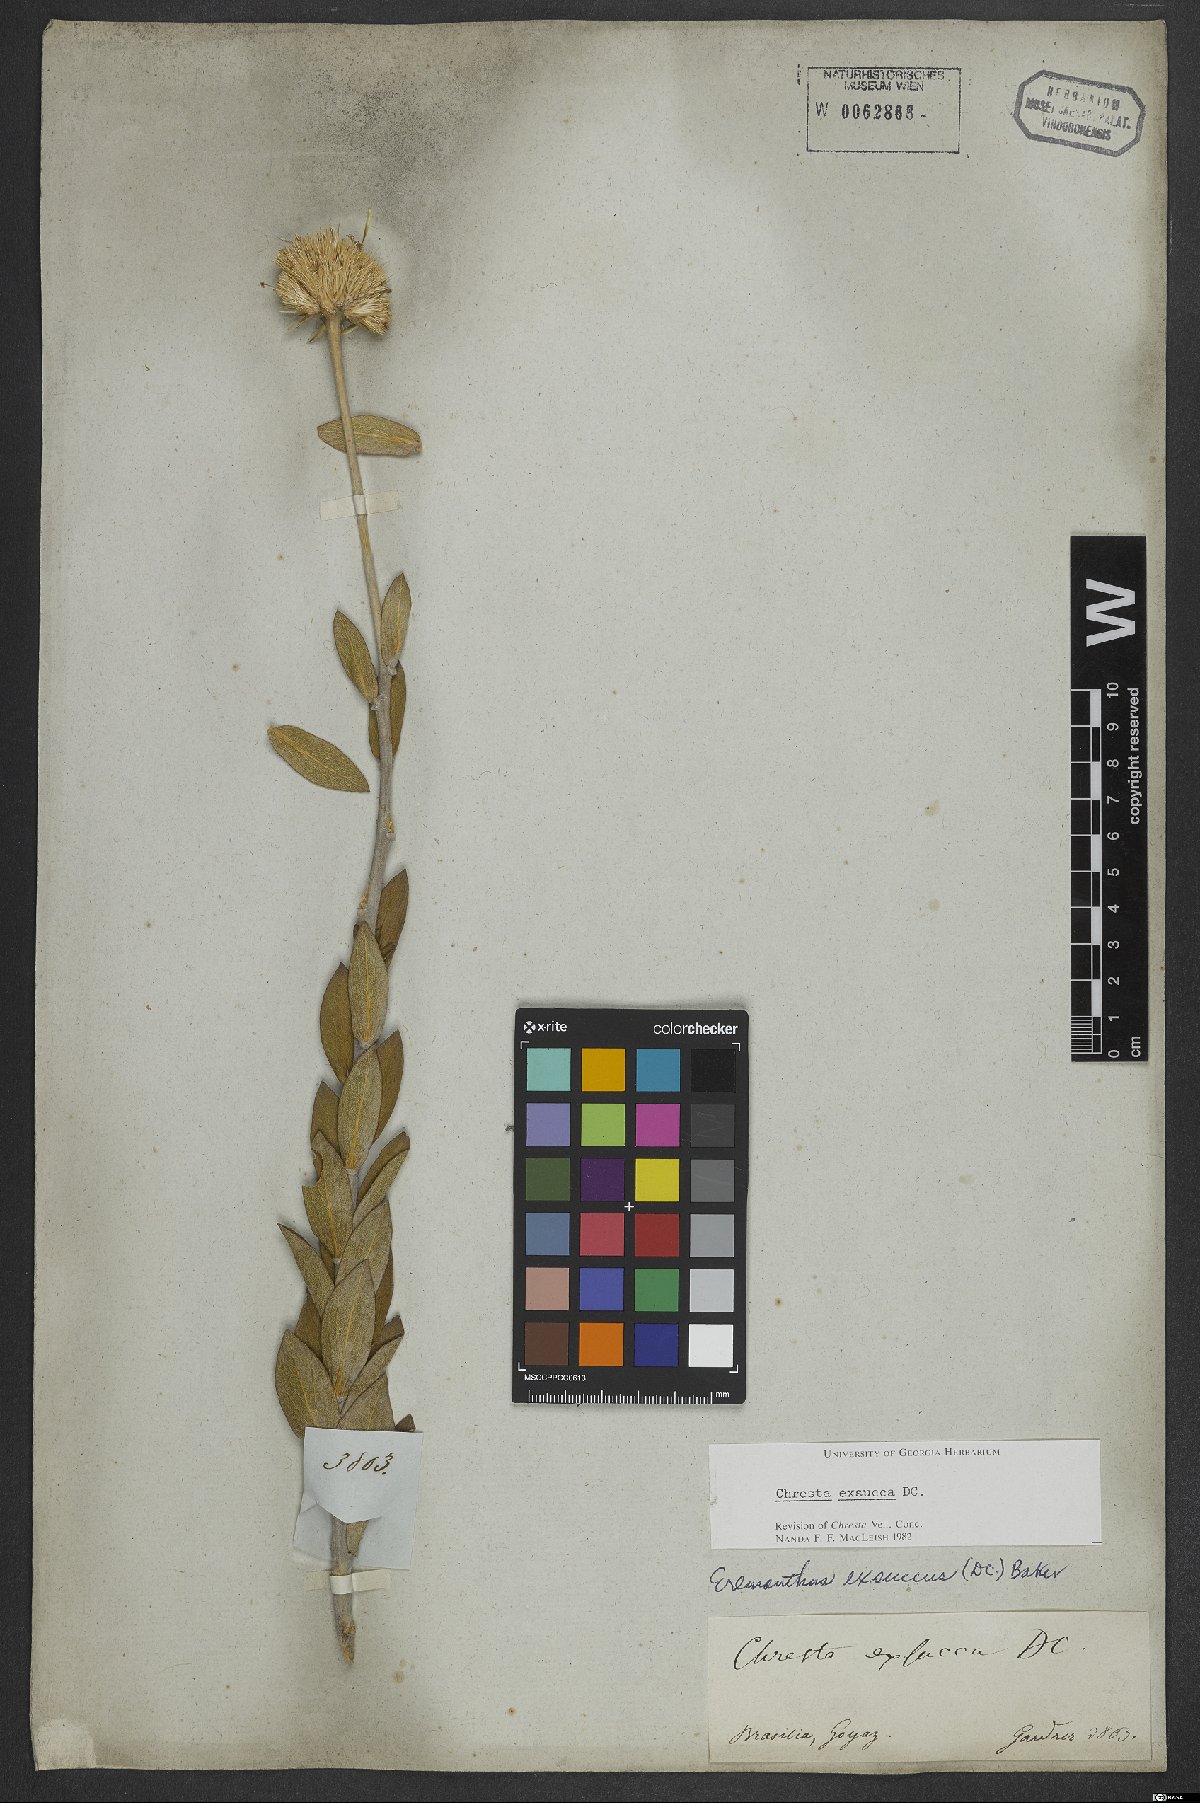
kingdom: Plantae
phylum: Tracheophyta
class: Magnoliopsida
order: Asterales
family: Asteraceae
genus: Chresta
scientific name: Chresta exsucca
